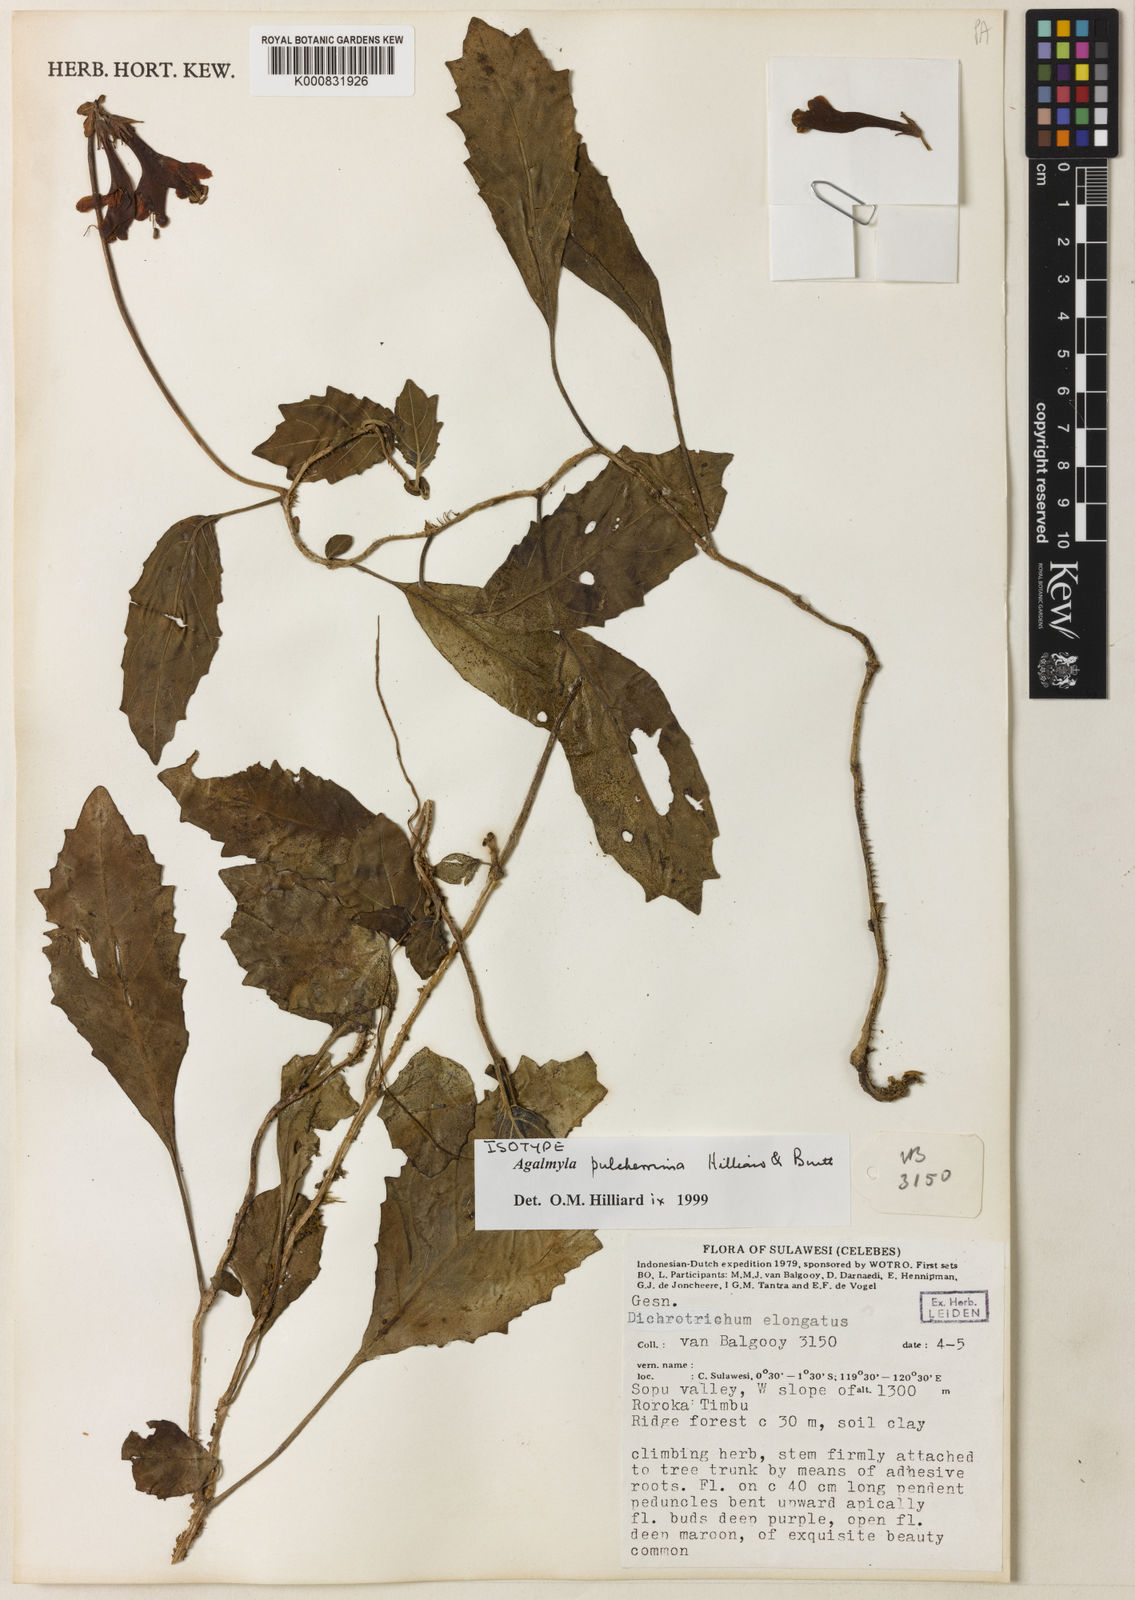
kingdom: Plantae
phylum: Tracheophyta
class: Magnoliopsida
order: Lamiales
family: Gesneriaceae
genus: Agalmyla
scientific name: Agalmyla pulcherrima
